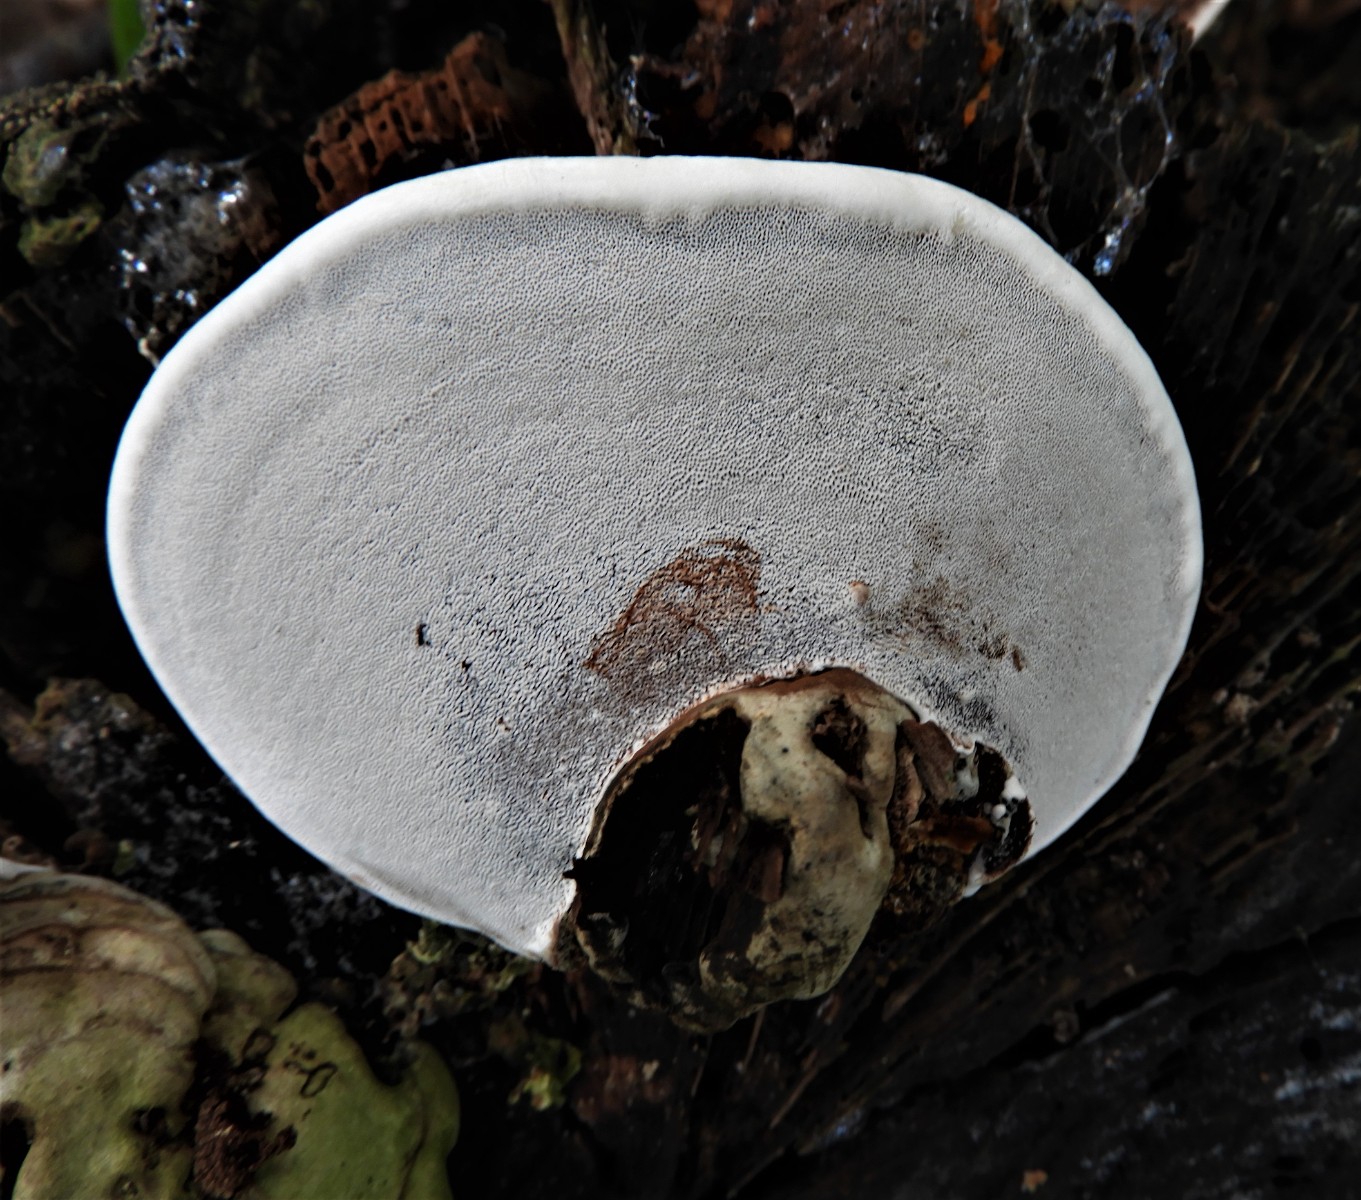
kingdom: Fungi
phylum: Basidiomycota
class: Agaricomycetes
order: Polyporales
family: Polyporaceae
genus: Fomes
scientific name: Fomes fomentarius
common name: tøndersvamp
